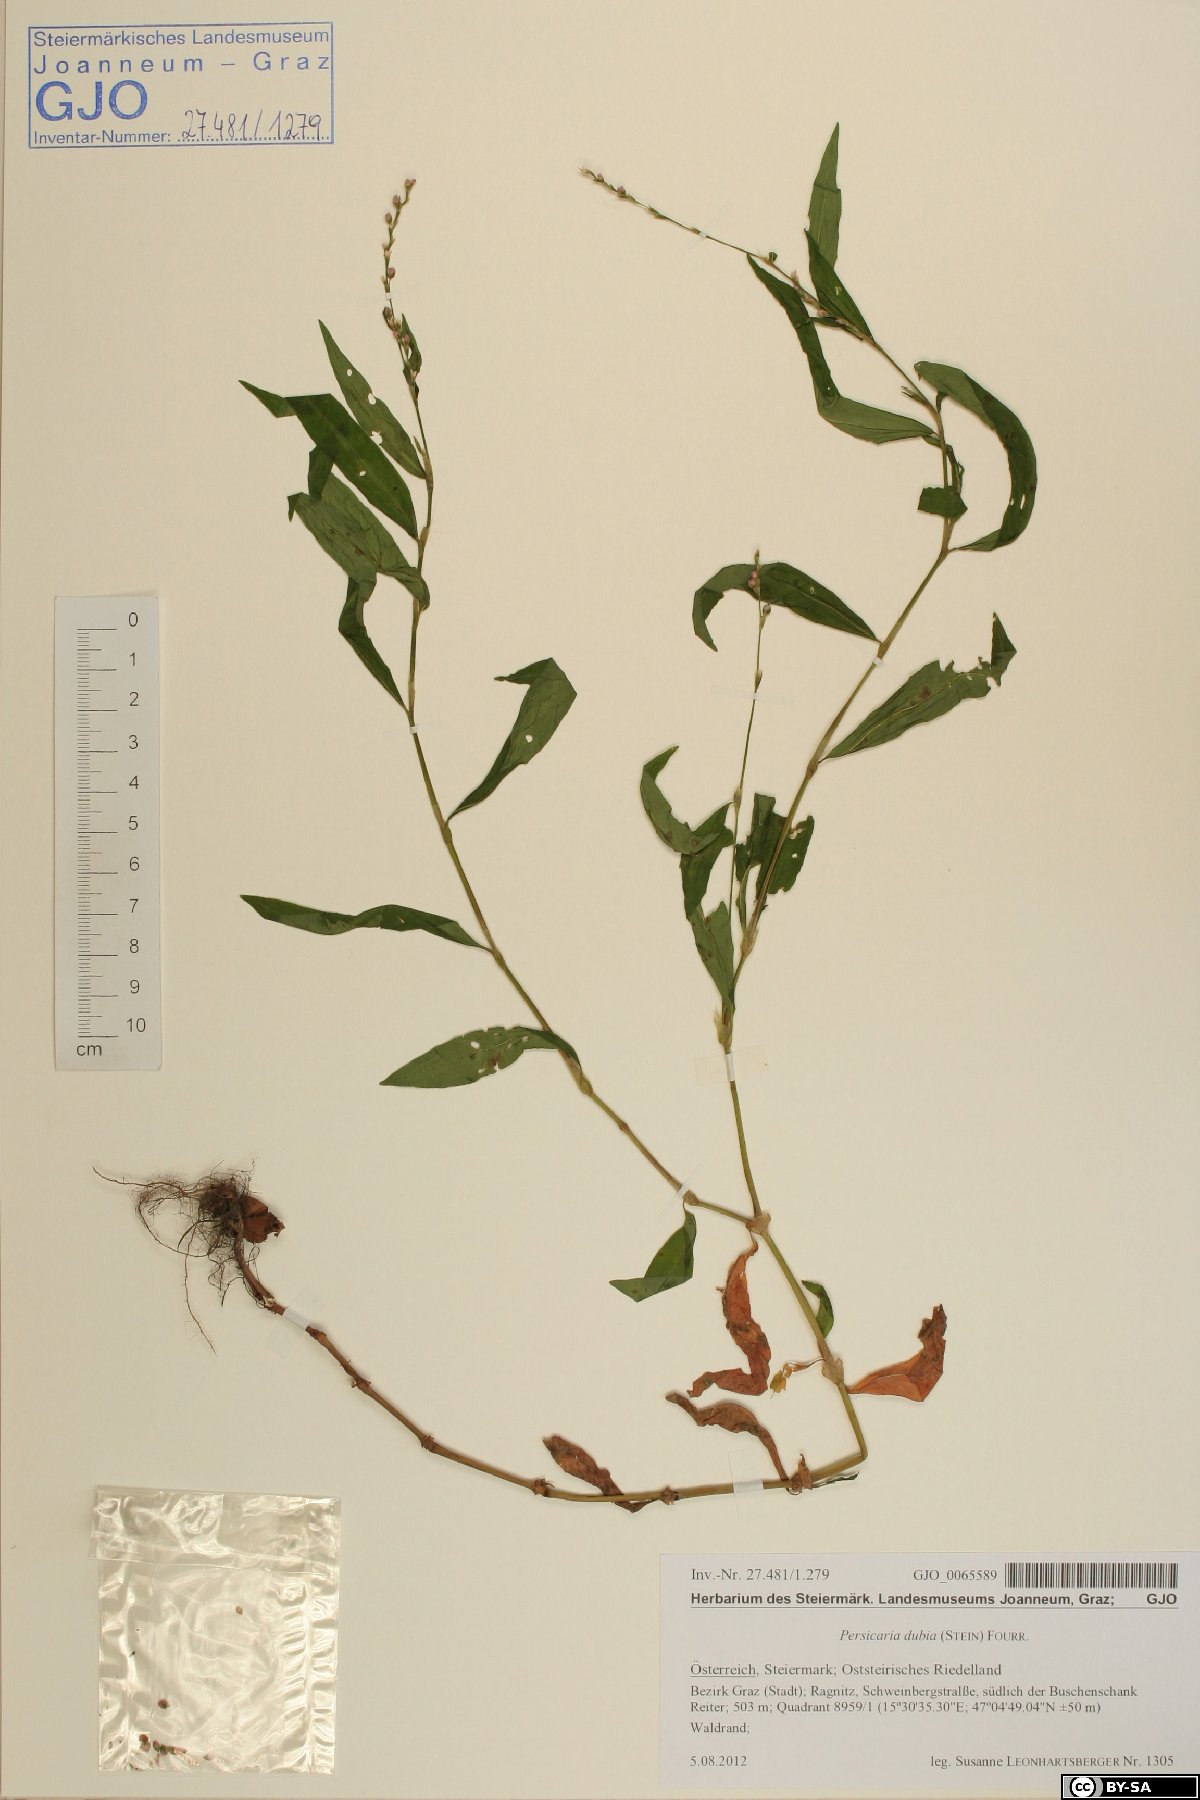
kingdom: Plantae
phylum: Tracheophyta
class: Magnoliopsida
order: Caryophyllales
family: Polygonaceae
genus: Persicaria
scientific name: Persicaria mitis
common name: Tasteless water-pepper
